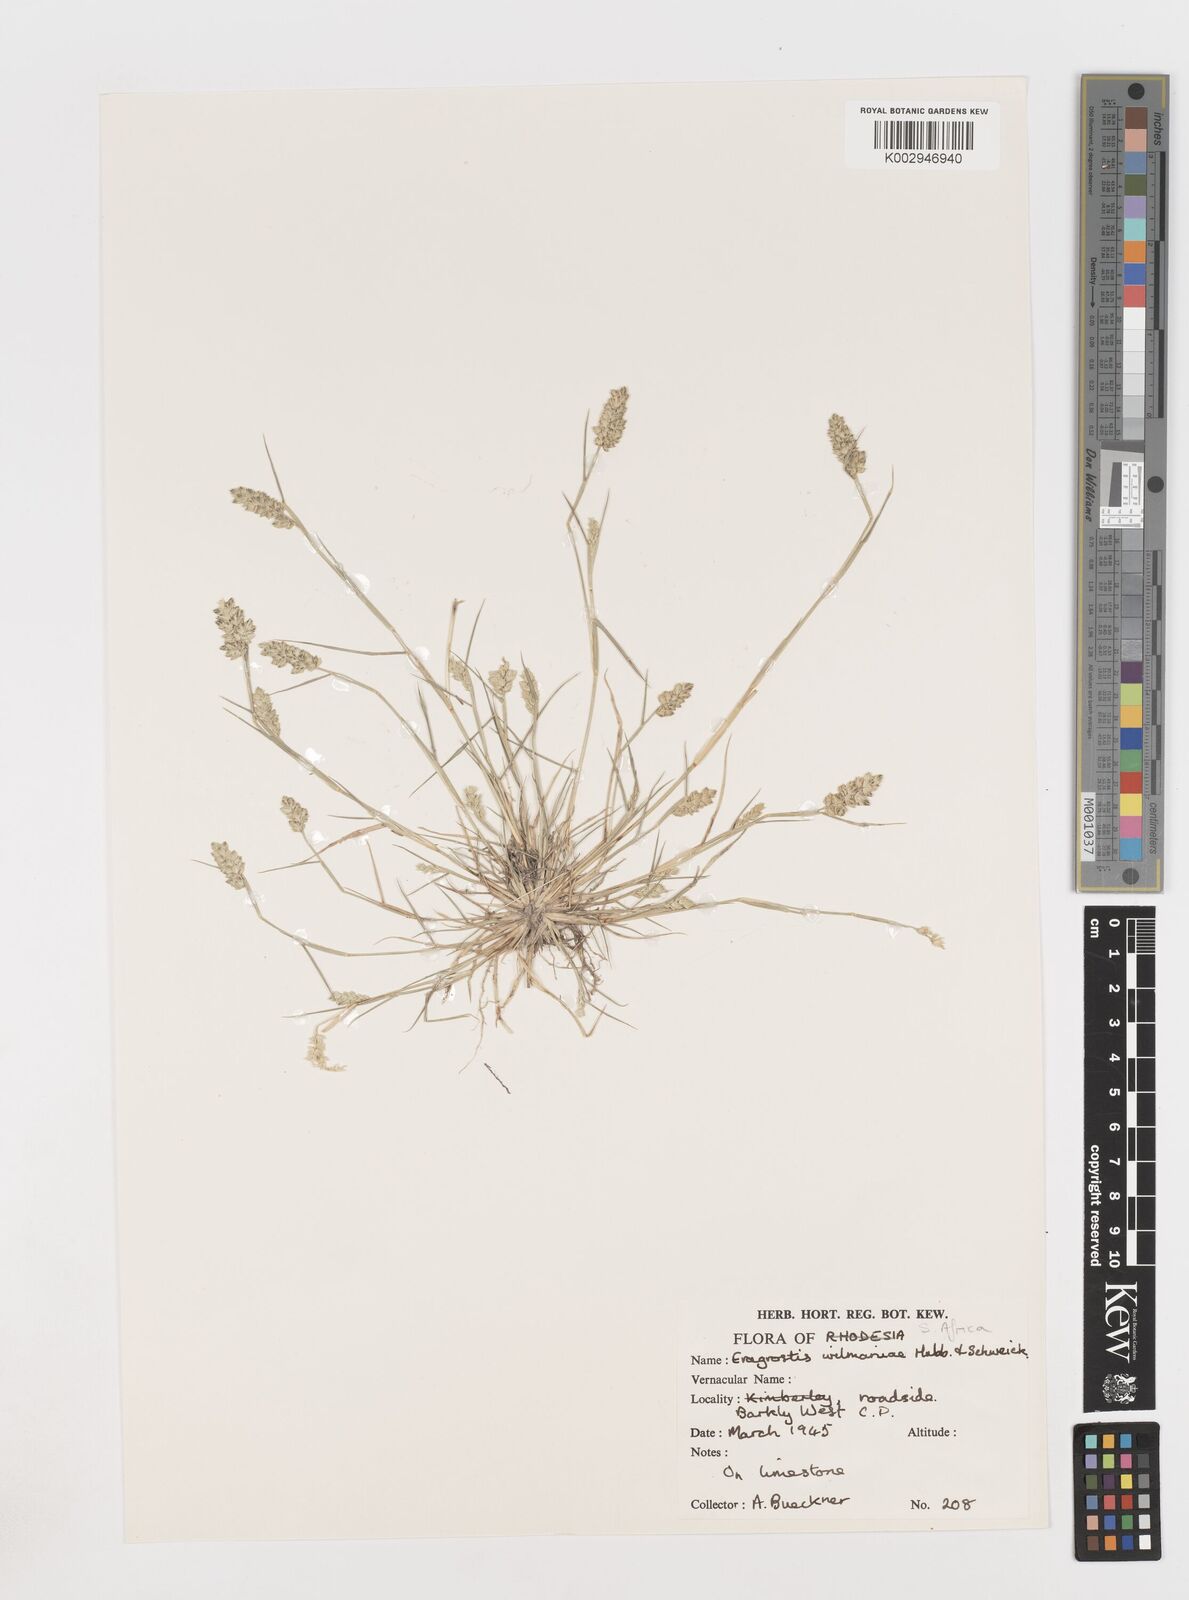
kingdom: Plantae
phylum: Tracheophyta
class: Liliopsida
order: Poales
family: Poaceae
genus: Eragrostis
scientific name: Eragrostis macrochlamys
